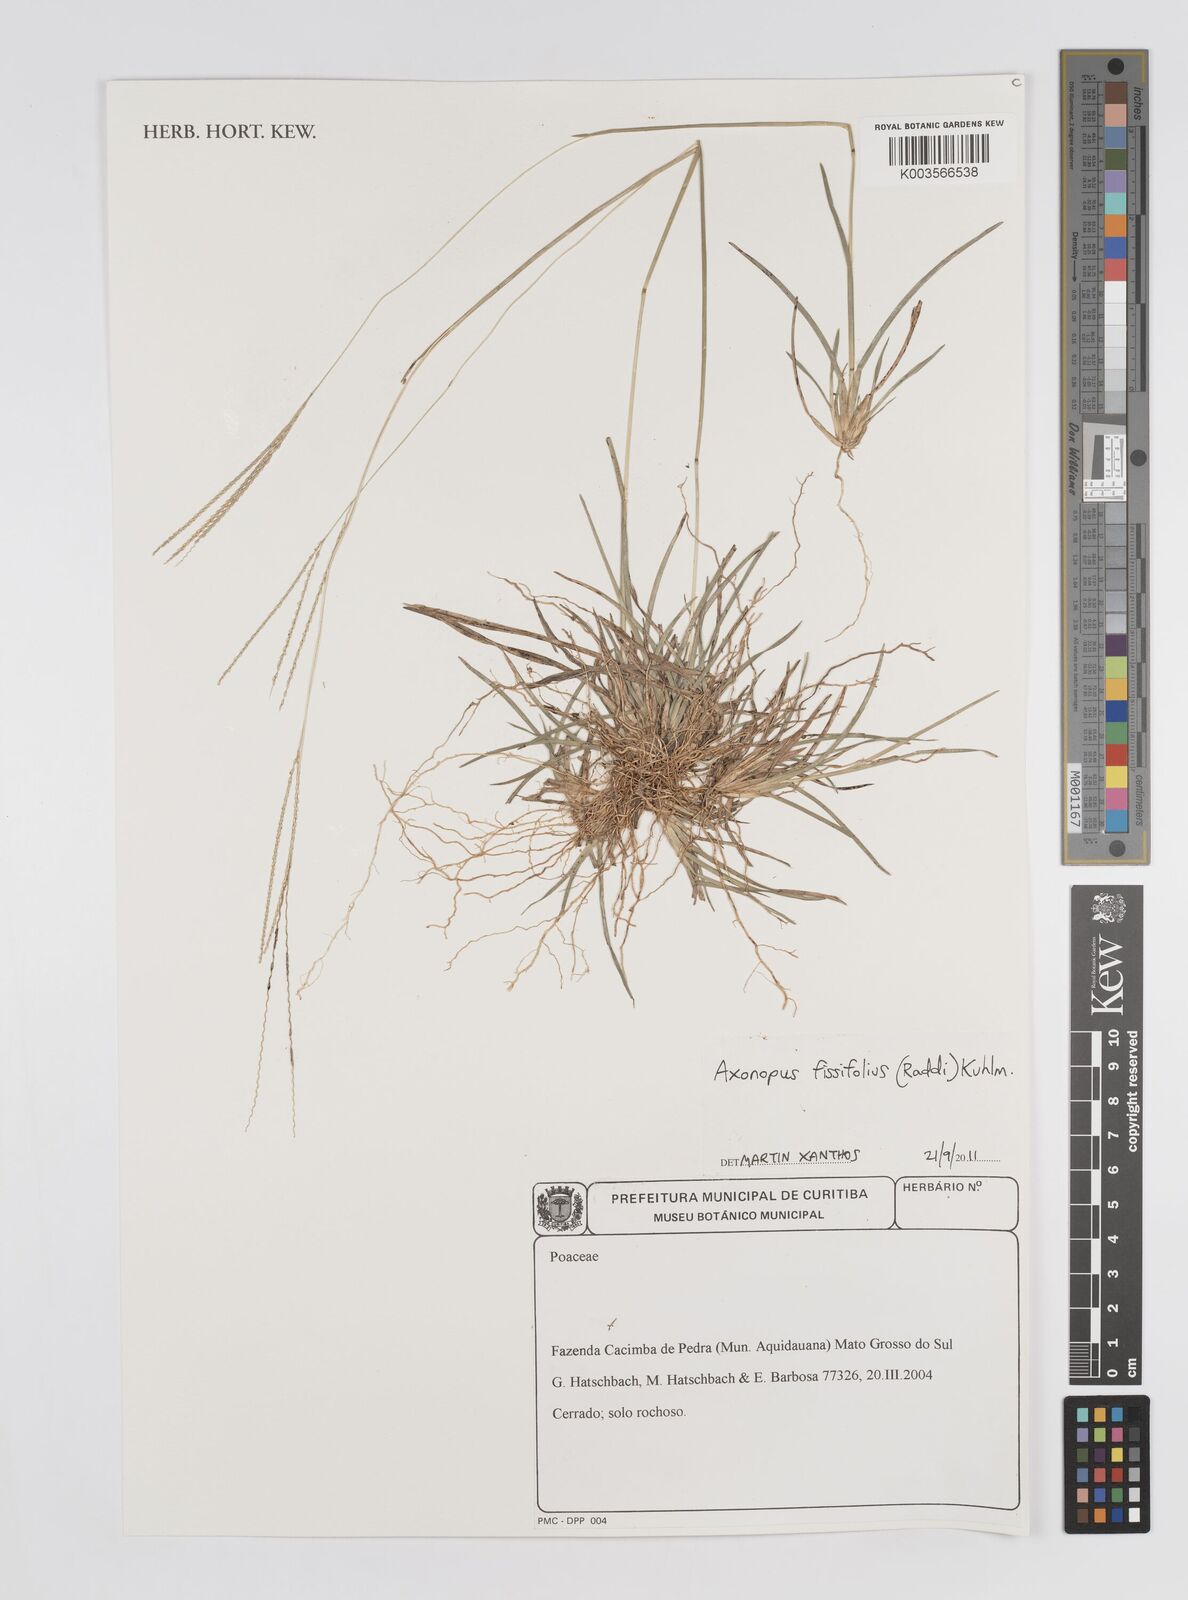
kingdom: Plantae
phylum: Tracheophyta
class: Liliopsida
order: Poales
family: Poaceae
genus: Axonopus
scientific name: Axonopus fissifolius
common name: Common carpetgrass
